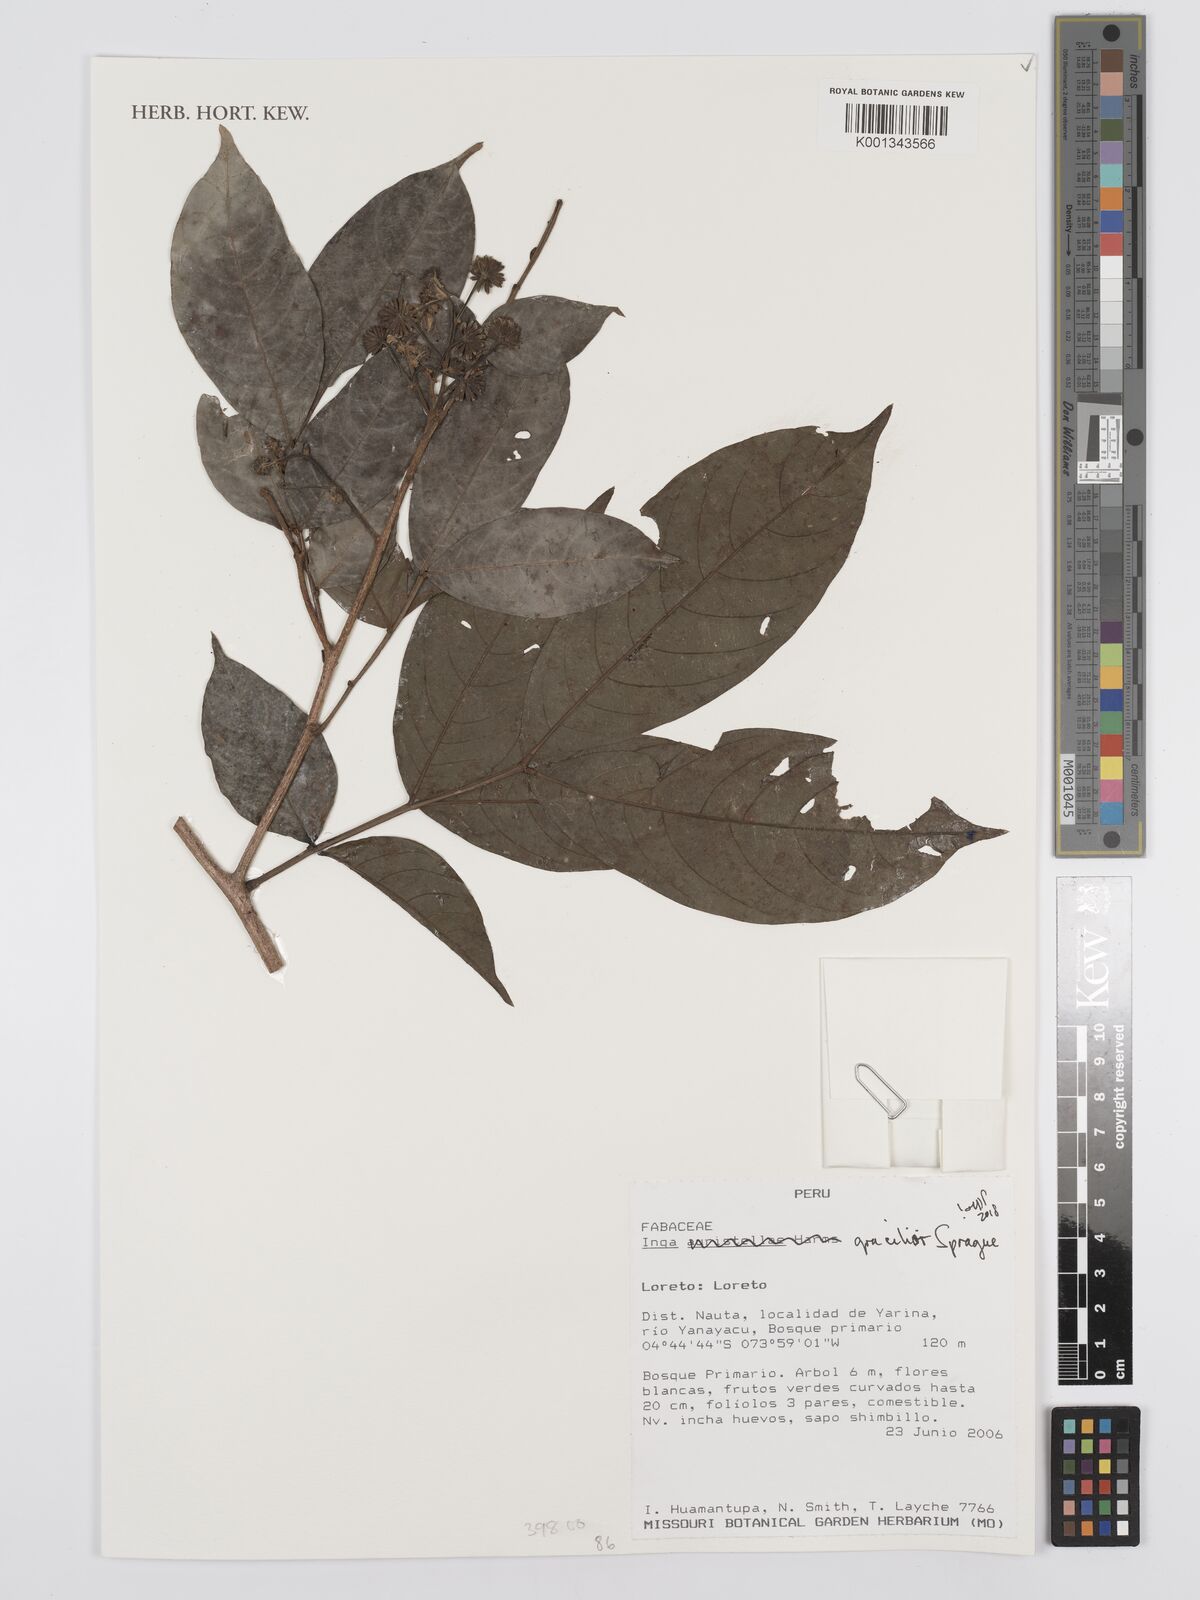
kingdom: Plantae
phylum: Tracheophyta
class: Magnoliopsida
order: Fabales
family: Fabaceae
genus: Inga
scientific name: Inga gracilior
